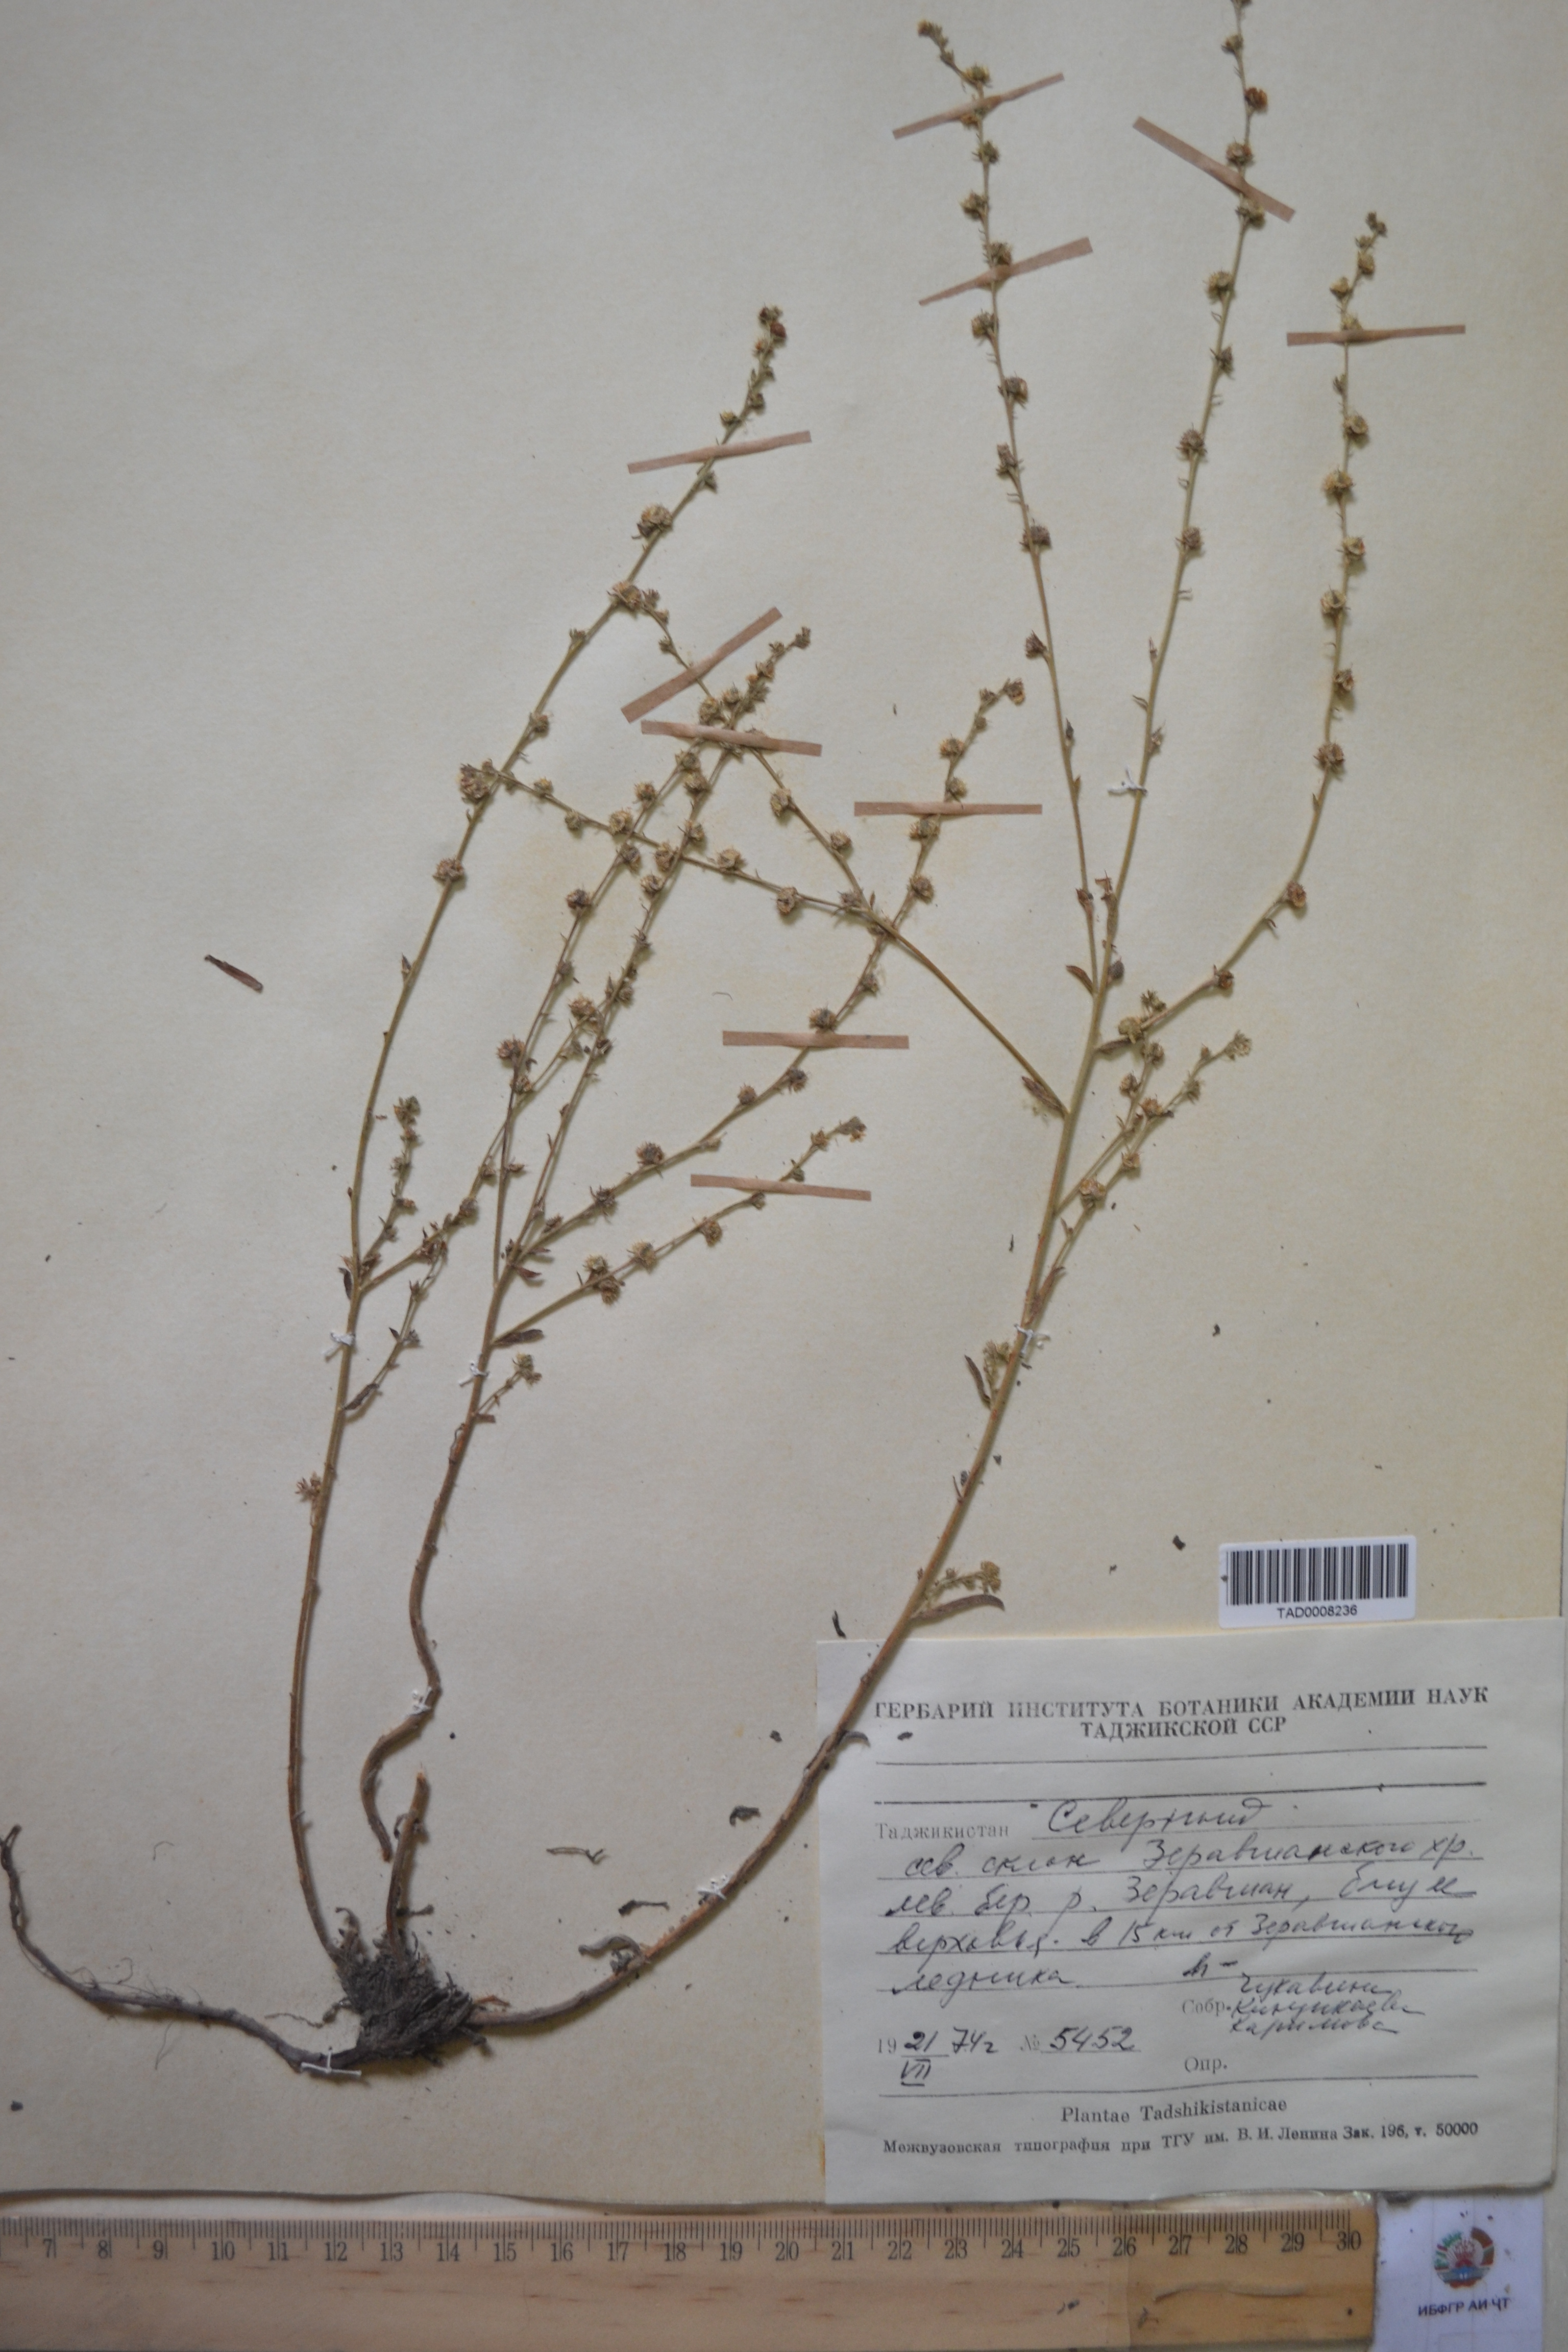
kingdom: Plantae
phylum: Tracheophyta
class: Magnoliopsida
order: Boraginales
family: Boraginaceae
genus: Rochelia
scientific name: Rochelia drobovii
